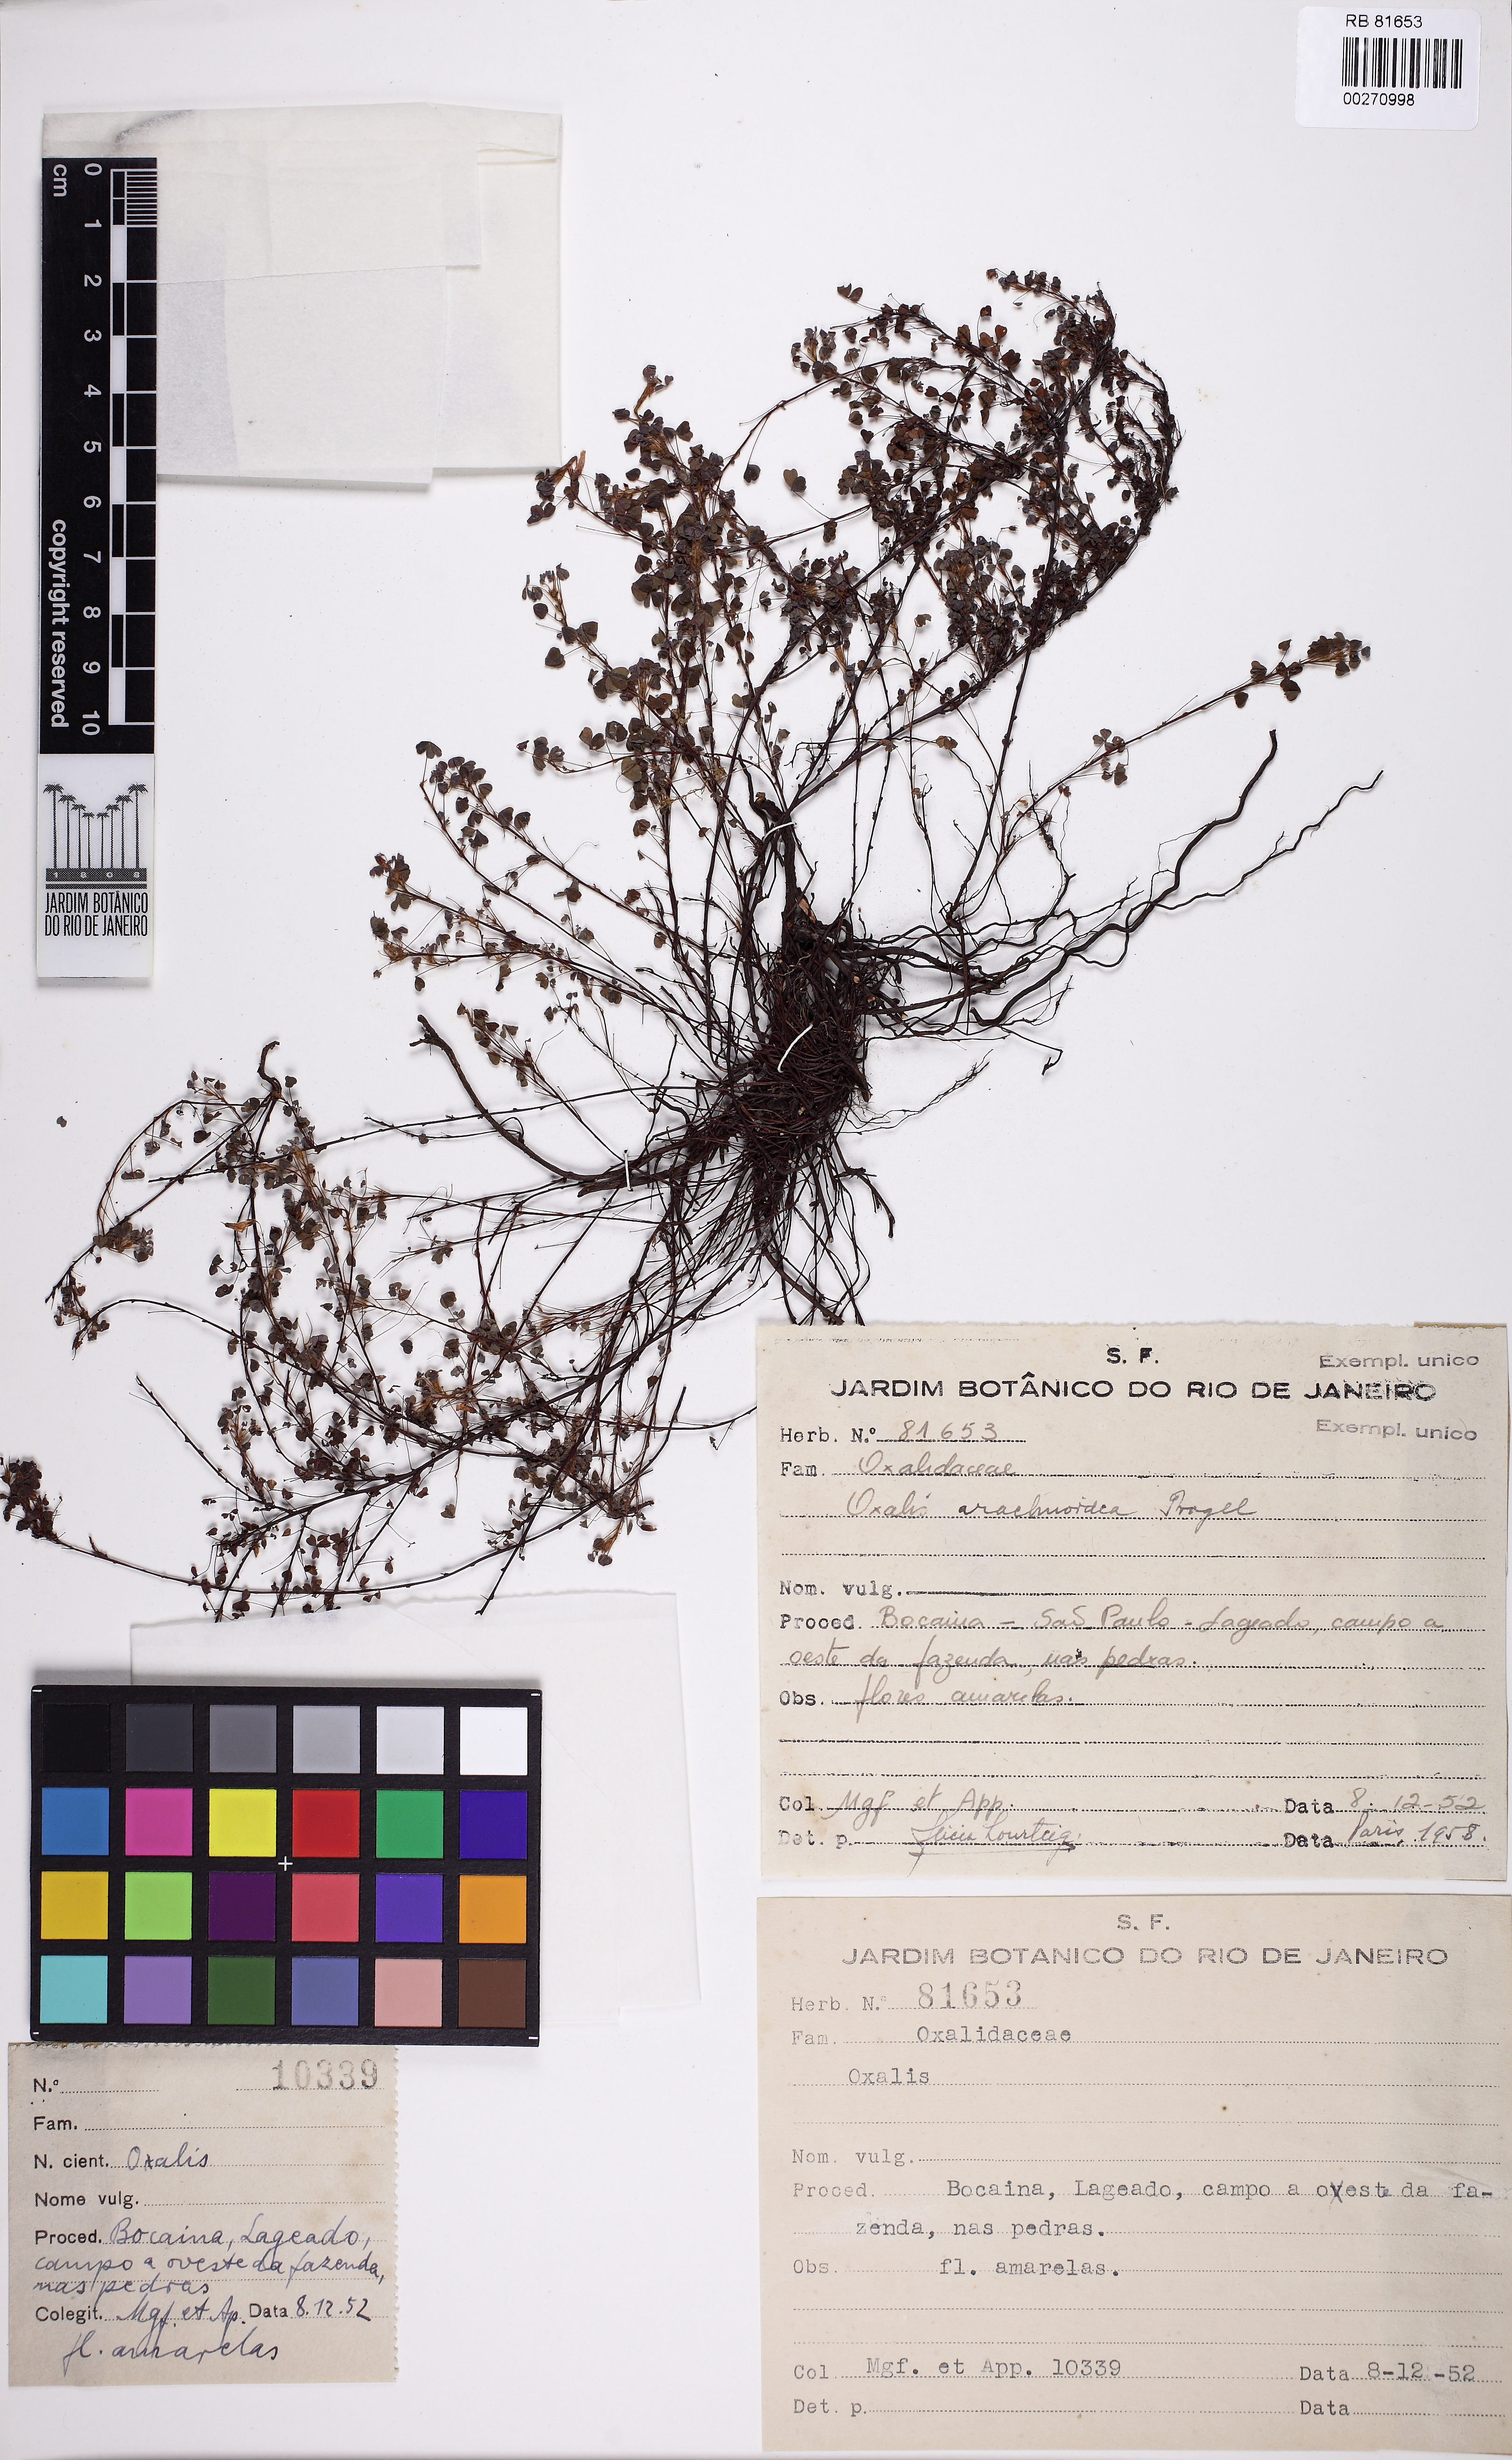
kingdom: Plantae
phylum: Tracheophyta
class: Magnoliopsida
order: Oxalidales
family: Oxalidaceae
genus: Oxalis
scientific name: Oxalis arachnoidea
